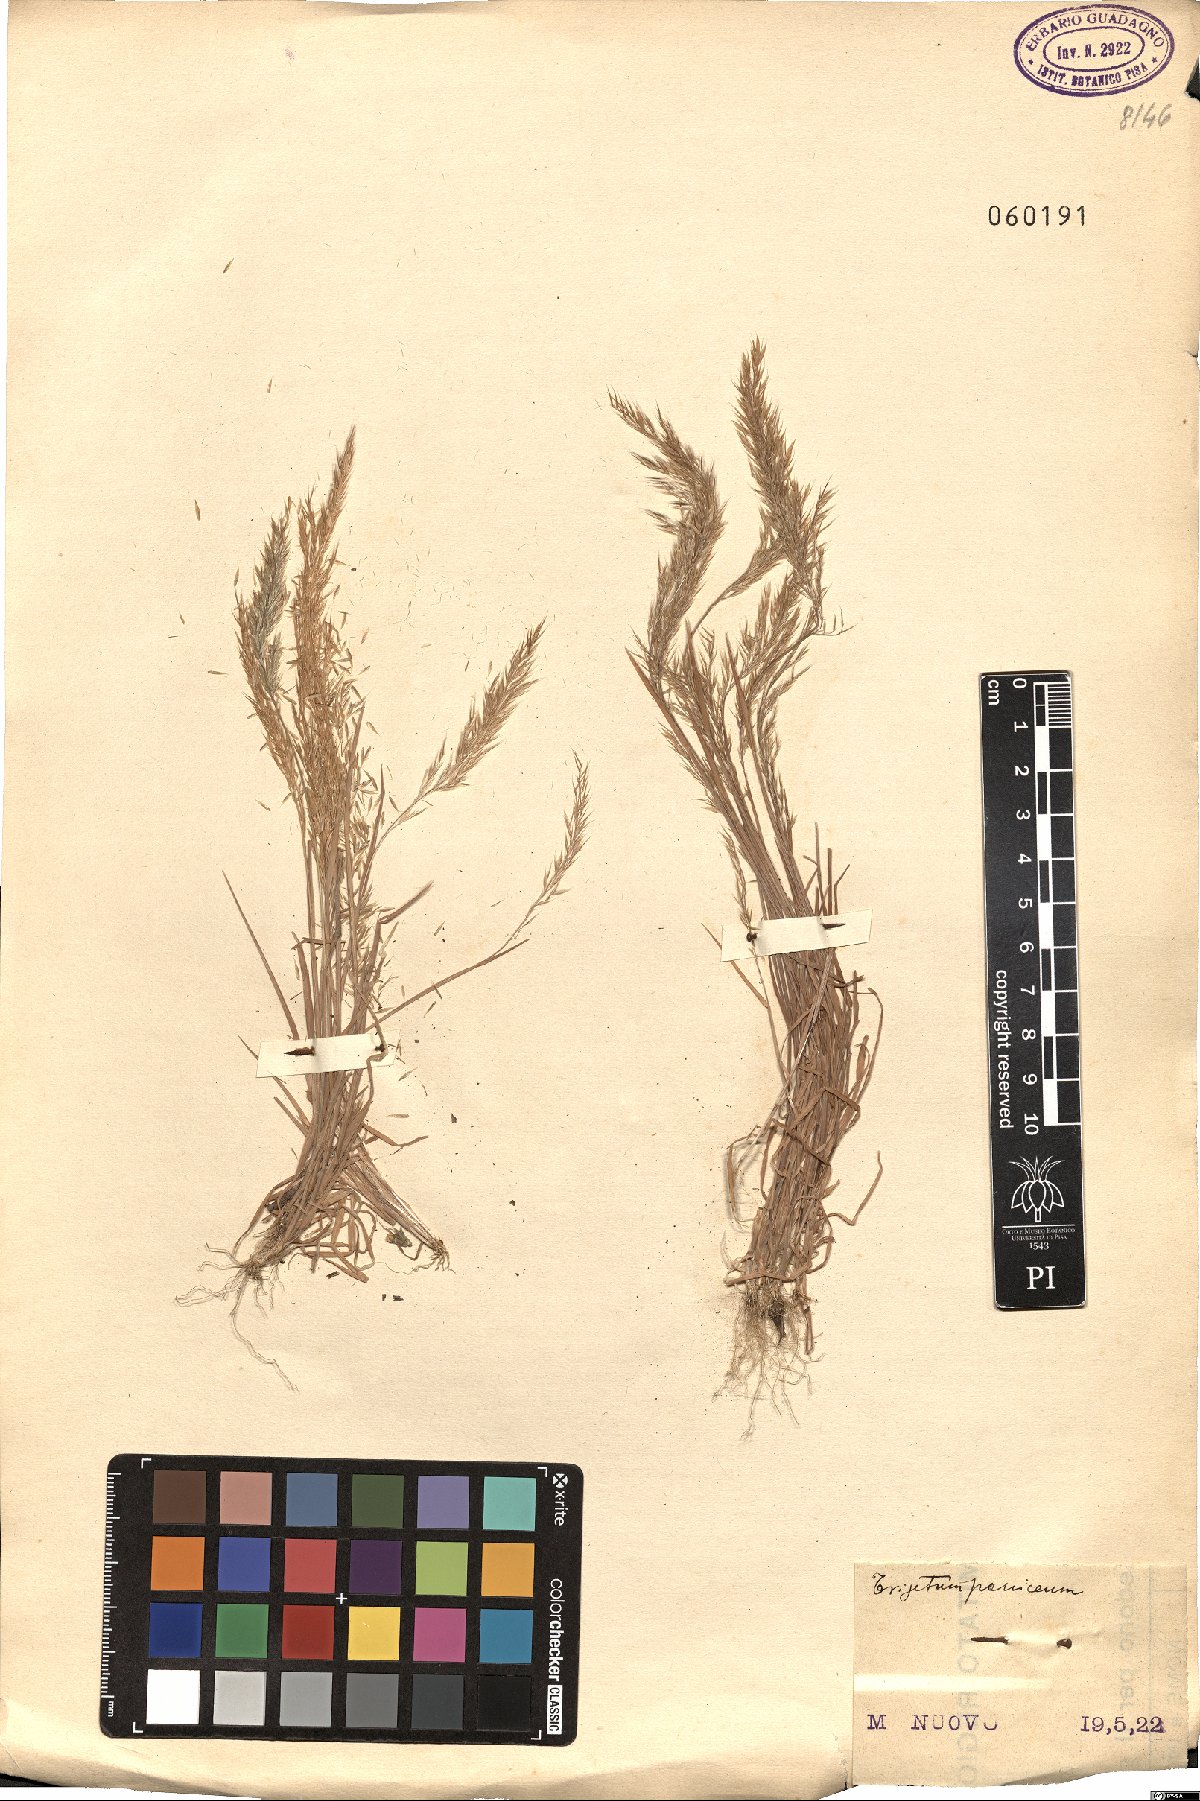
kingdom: Plantae
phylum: Tracheophyta
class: Liliopsida
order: Poales
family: Poaceae
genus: Trisetaria
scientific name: Trisetaria panicea
